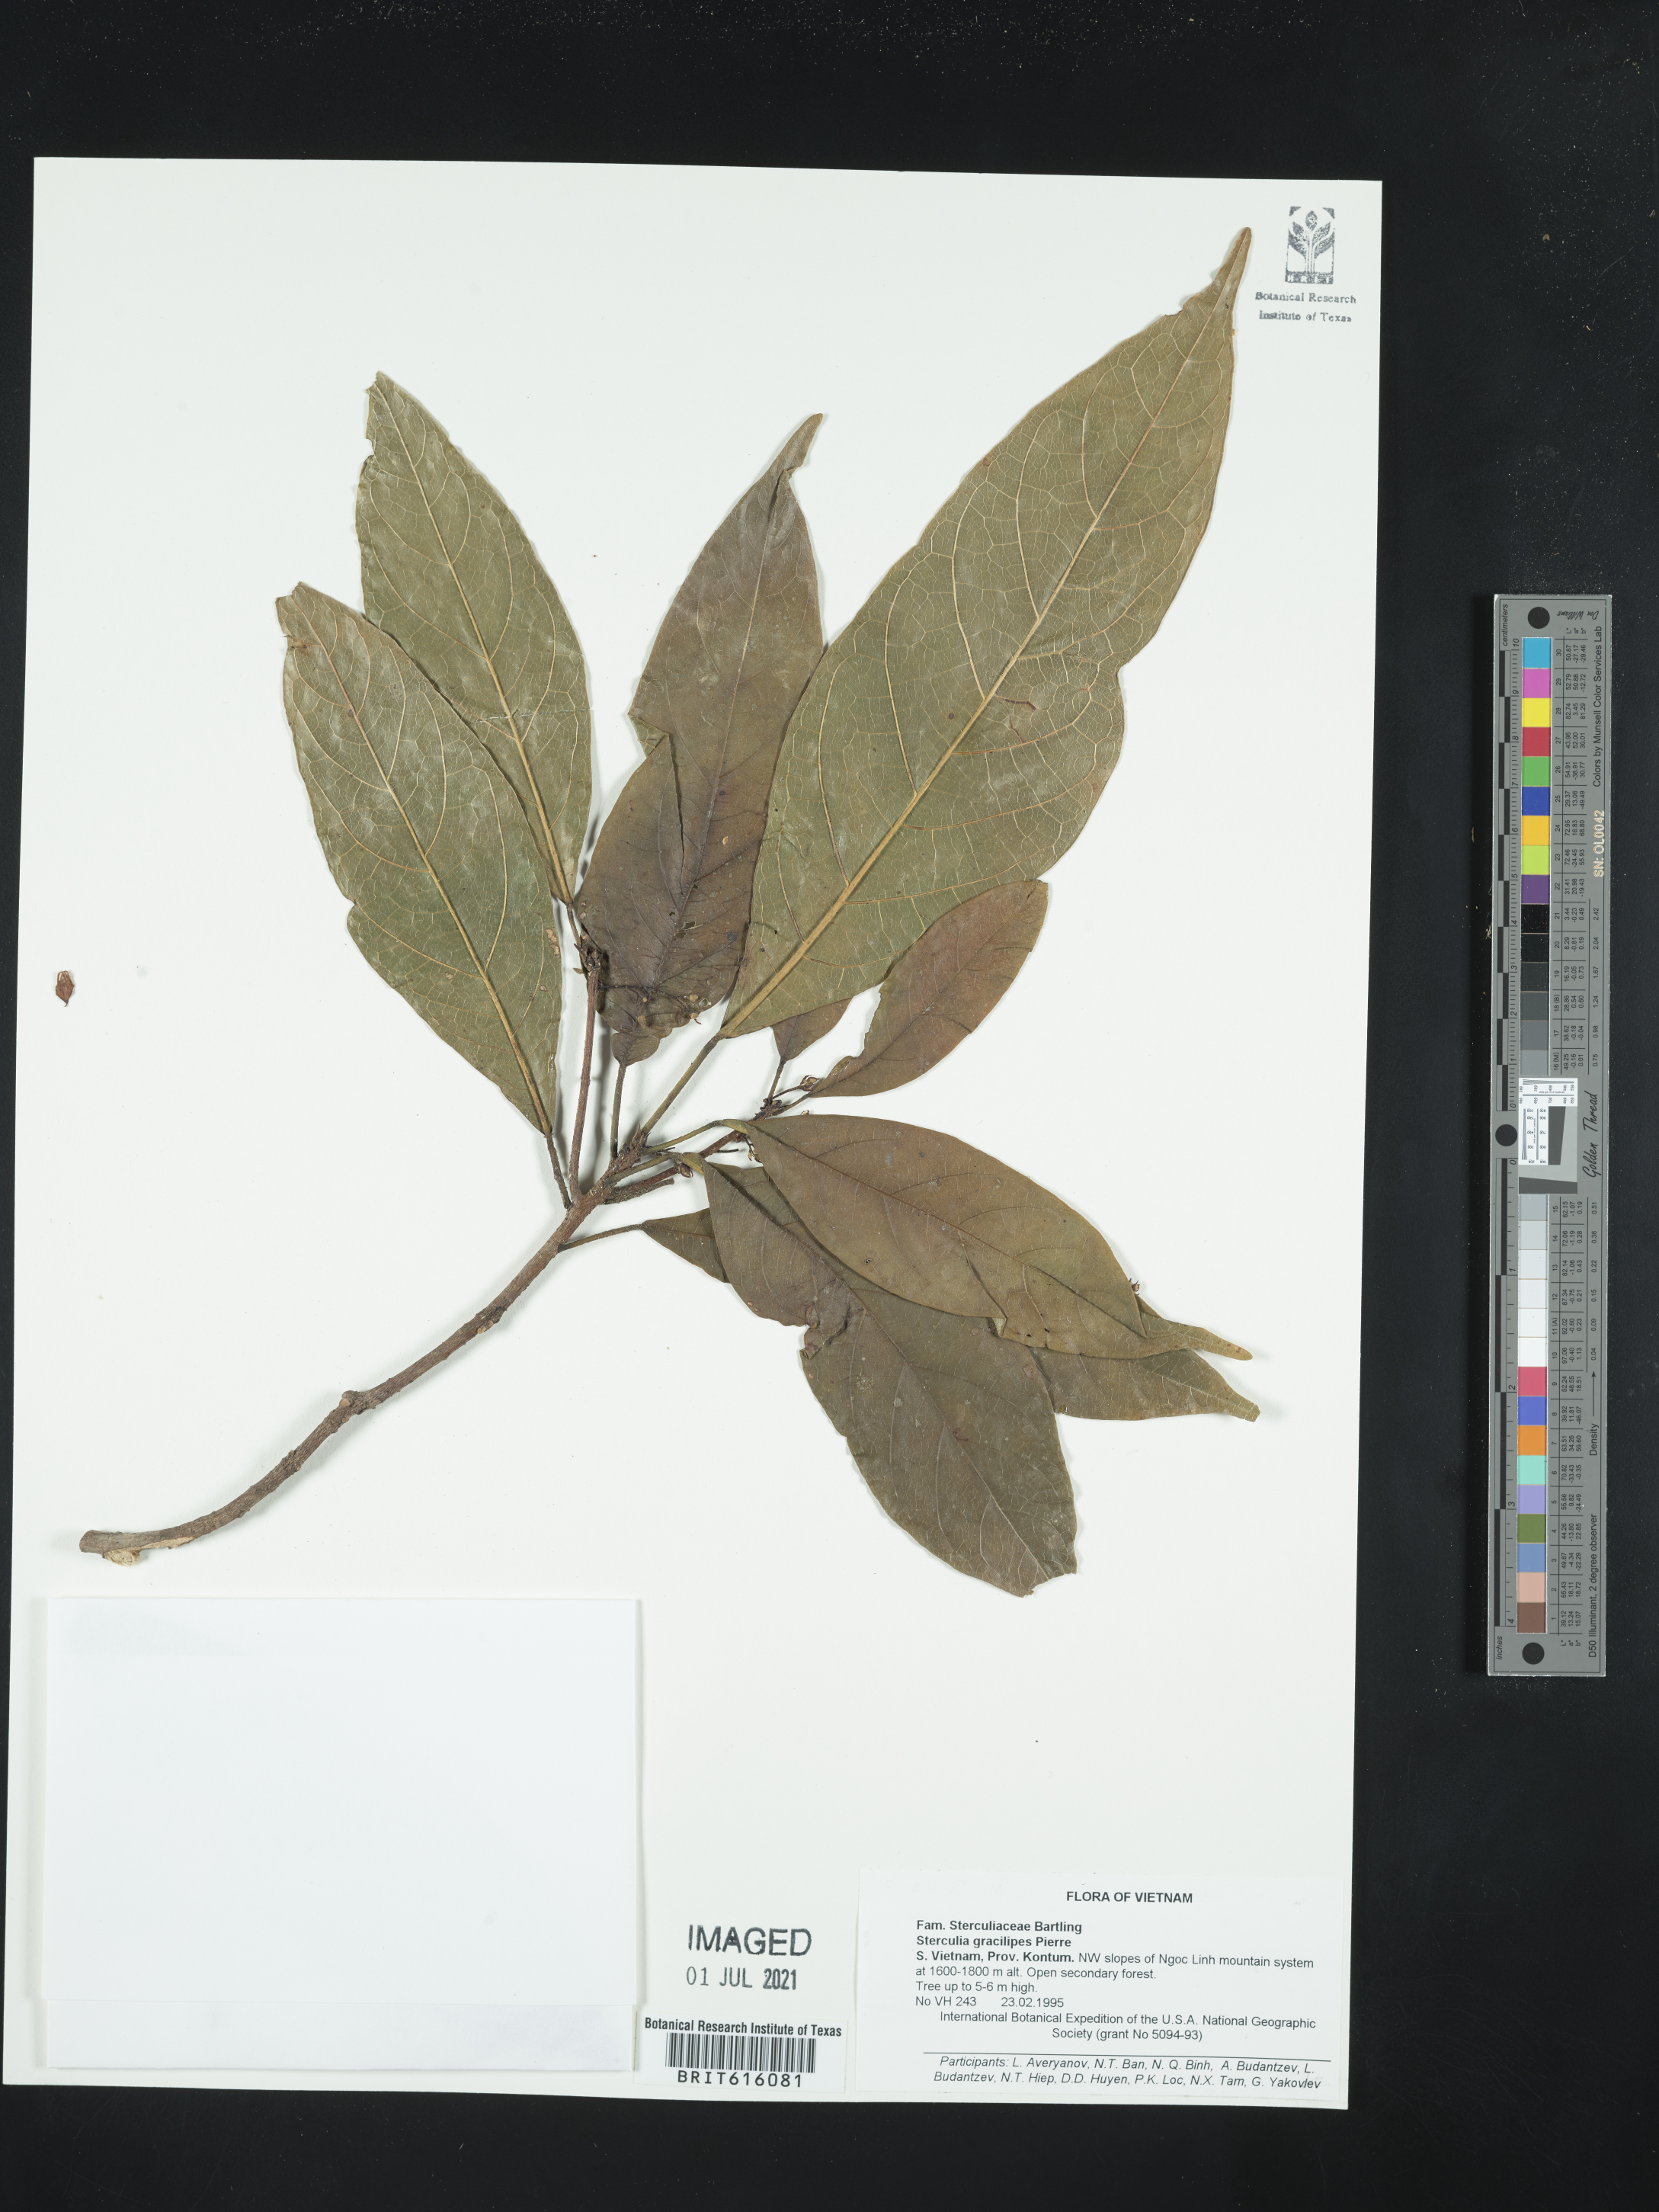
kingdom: Plantae
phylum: Tracheophyta
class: Magnoliopsida
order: Malvales
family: Malvaceae
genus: Sterculia
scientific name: Sterculia gracilipes
